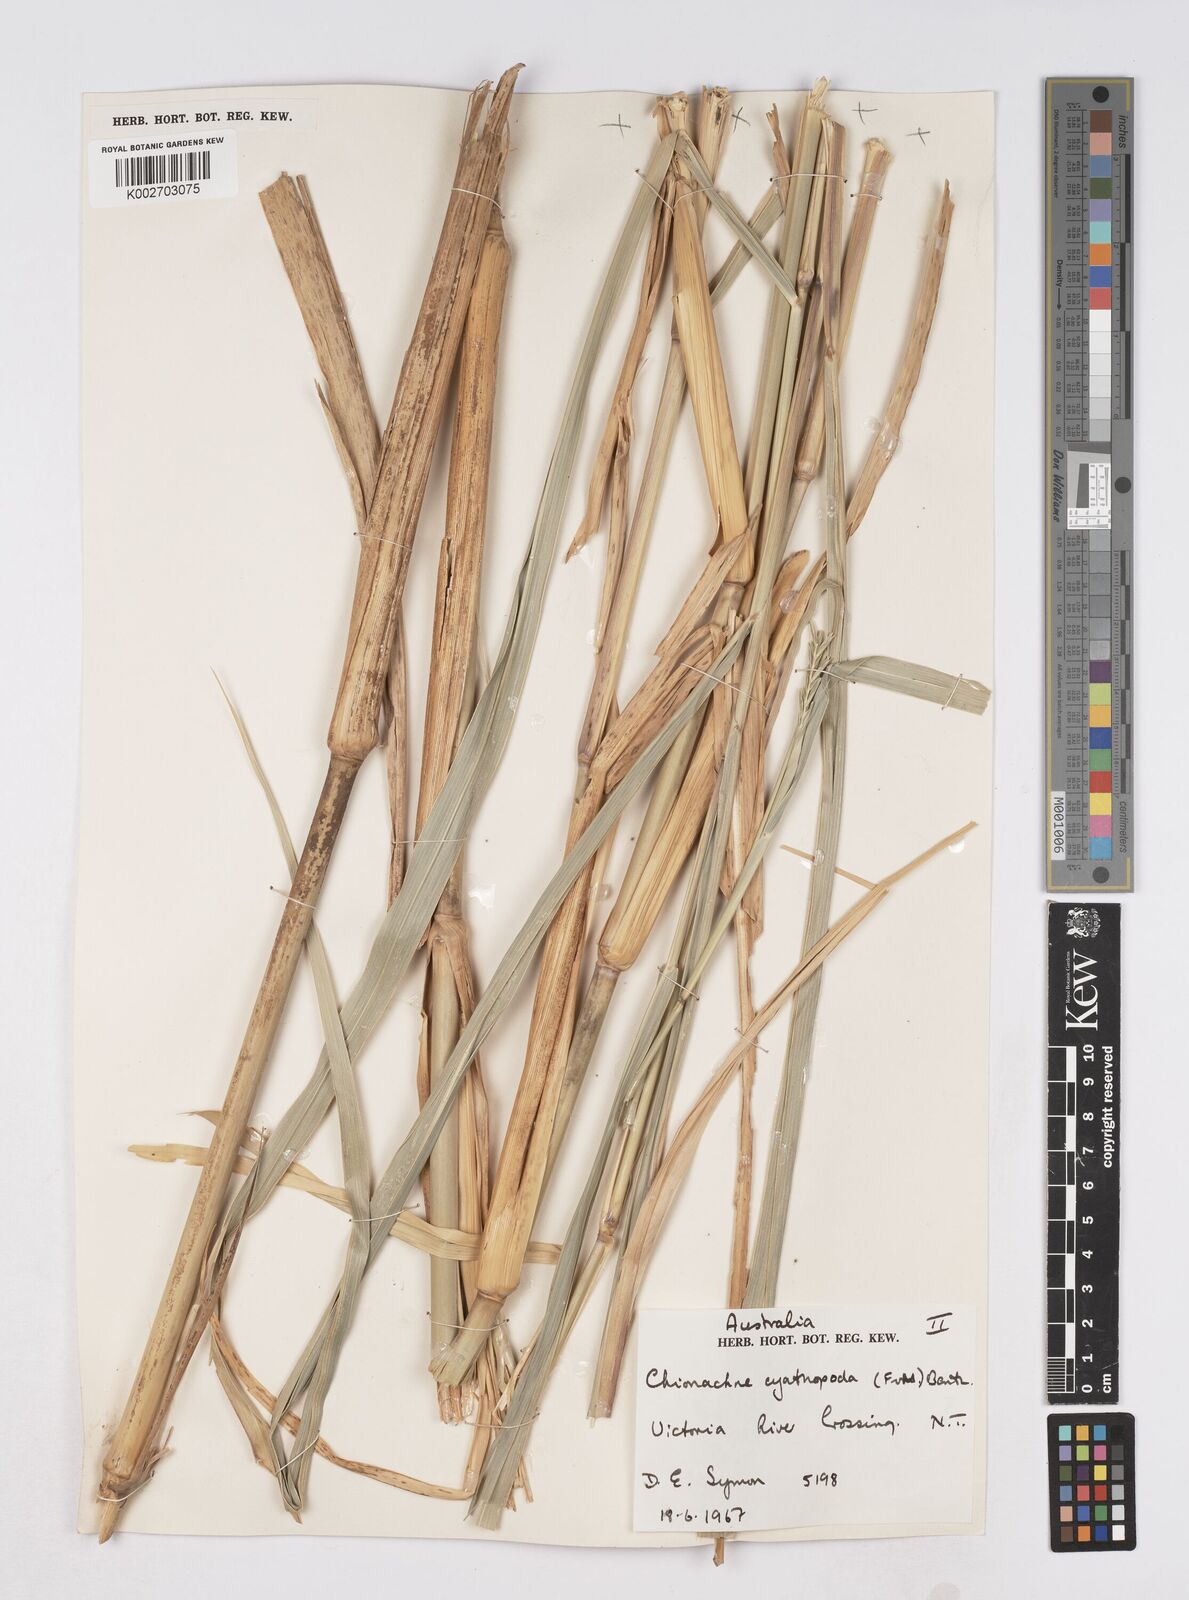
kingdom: Plantae
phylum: Tracheophyta
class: Liliopsida
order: Poales
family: Poaceae
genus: Polytoca
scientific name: Polytoca cyathopoda
